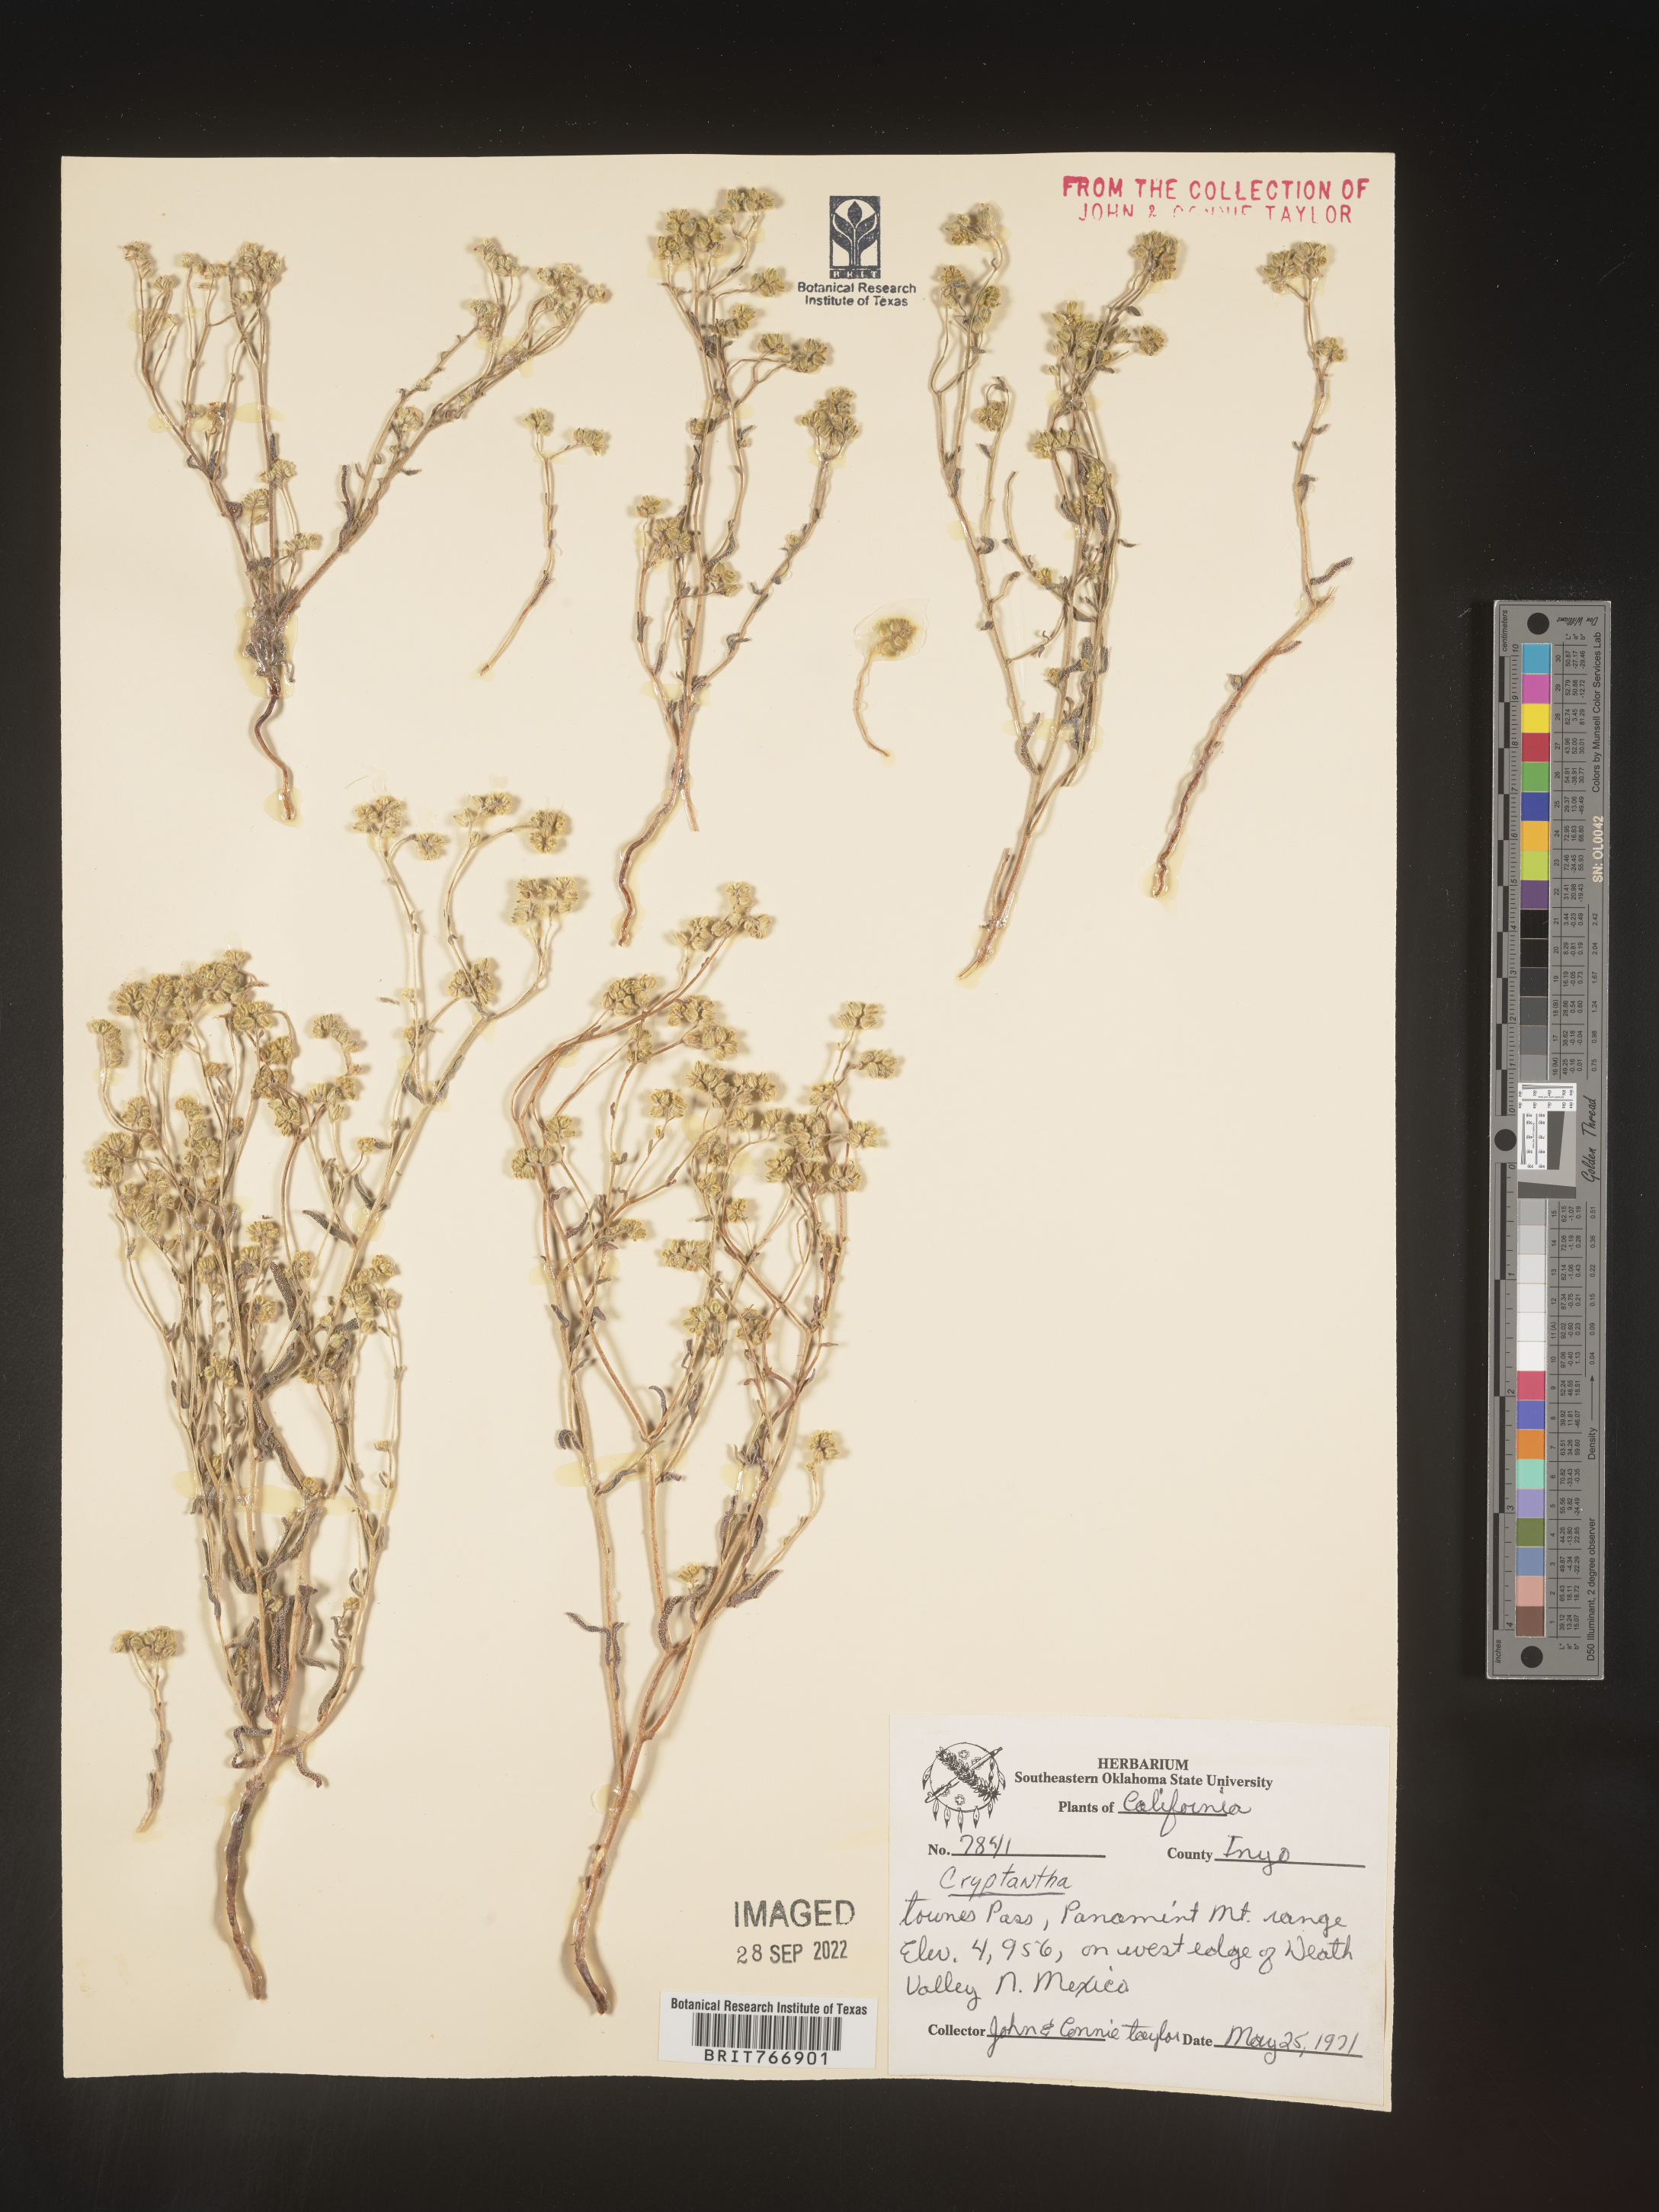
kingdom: Plantae
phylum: Tracheophyta
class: Magnoliopsida
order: Boraginales
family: Boraginaceae
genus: Cryptantha
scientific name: Cryptantha
